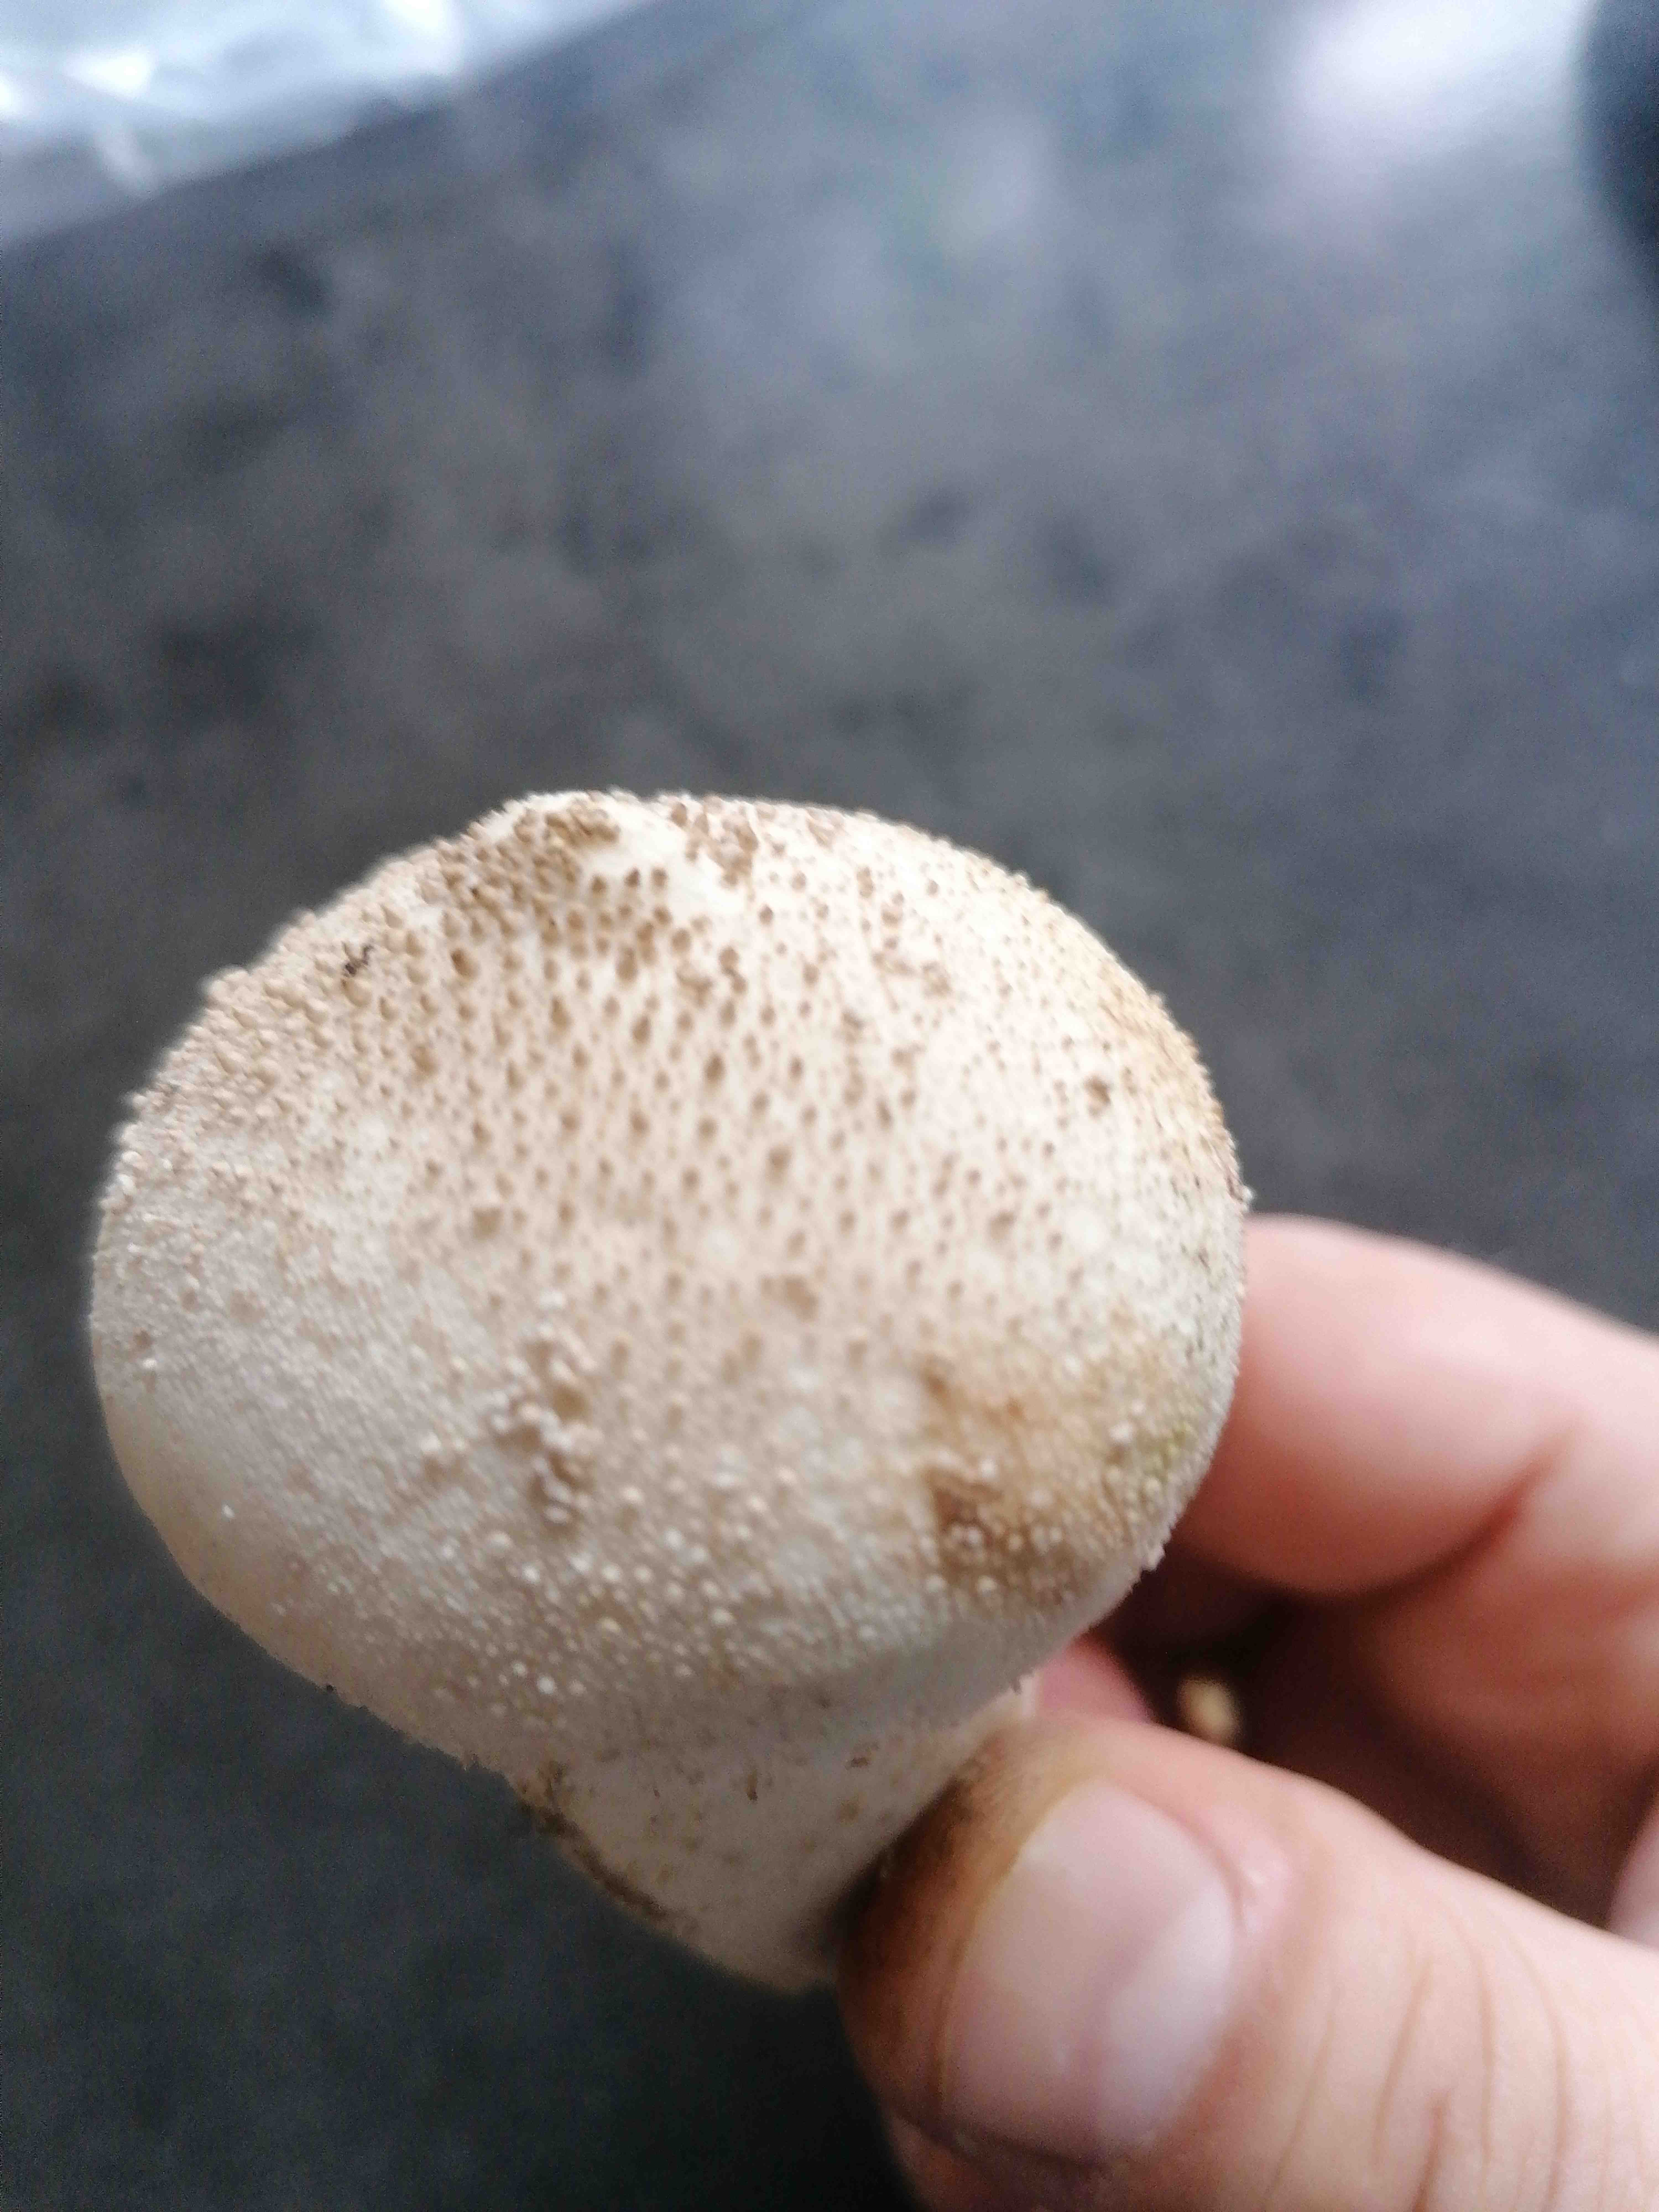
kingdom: Fungi
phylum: Basidiomycota
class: Agaricomycetes
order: Agaricales
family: Lycoperdaceae
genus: Lycoperdon
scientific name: Lycoperdon perlatum
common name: krystal-støvbold
